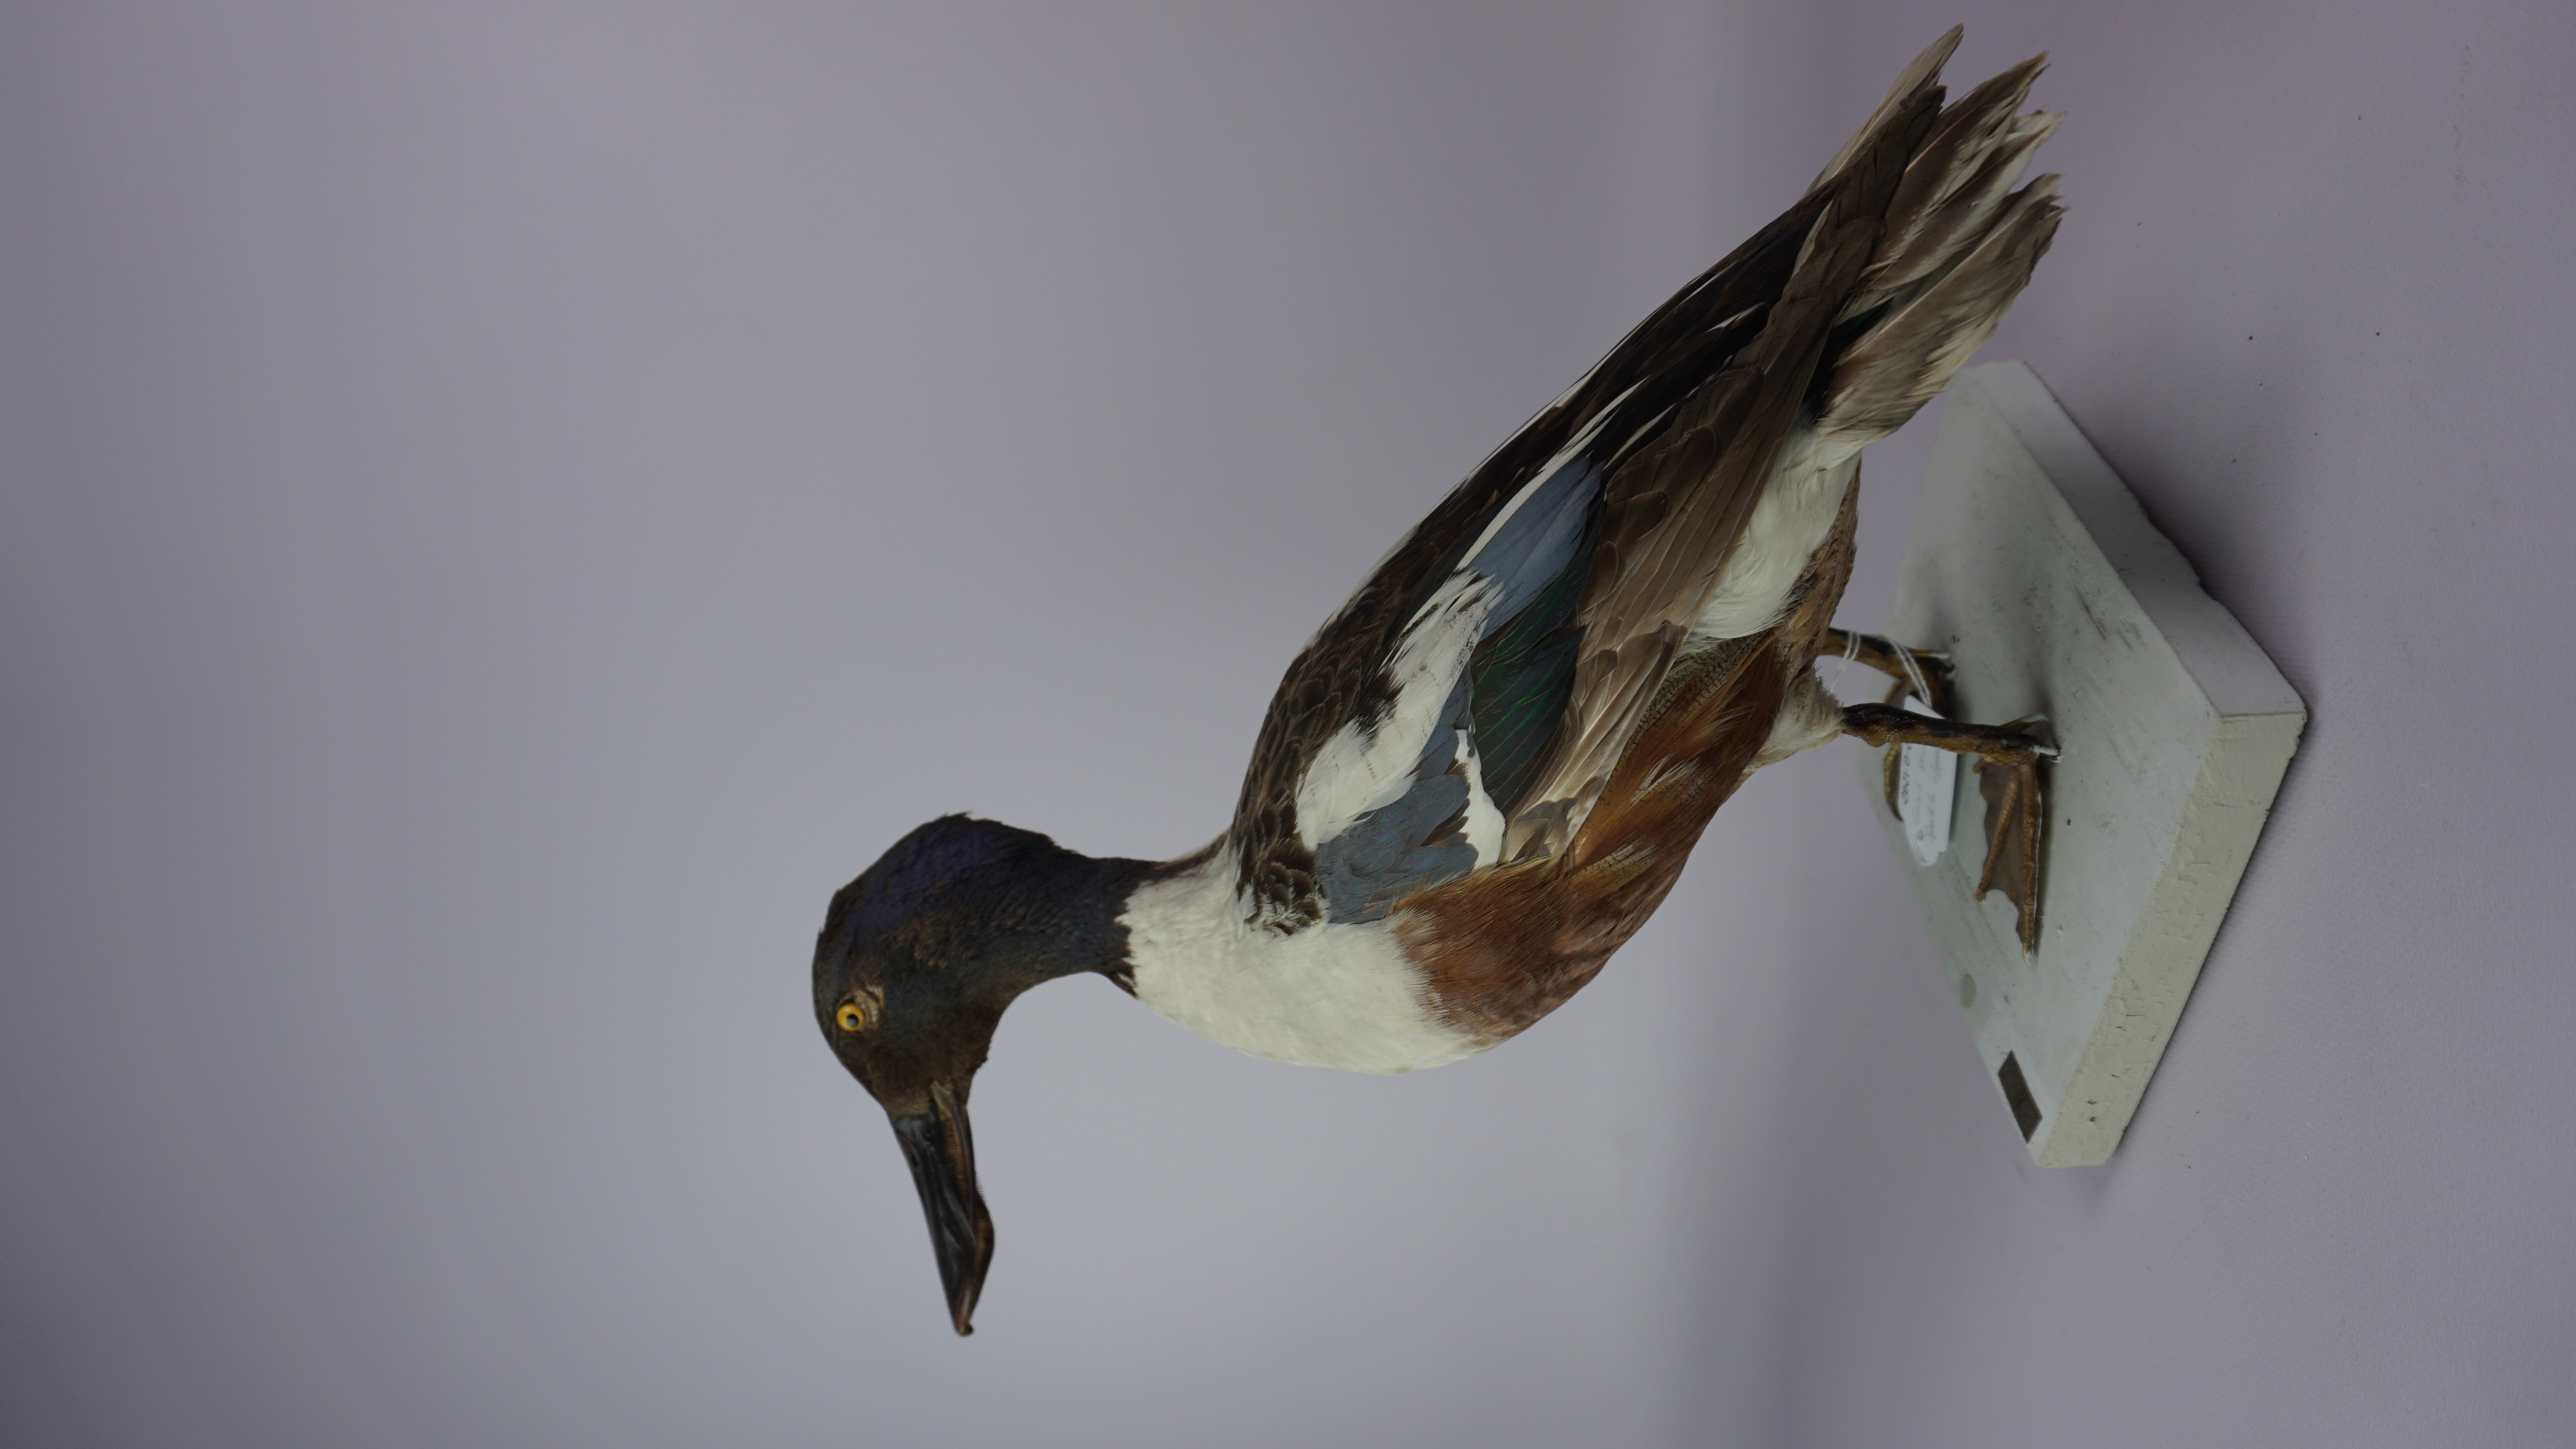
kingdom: Animalia
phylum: Chordata
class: Aves
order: Anseriformes
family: Anatidae
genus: Spatula
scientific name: Spatula clypeata
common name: Northern shoveler
